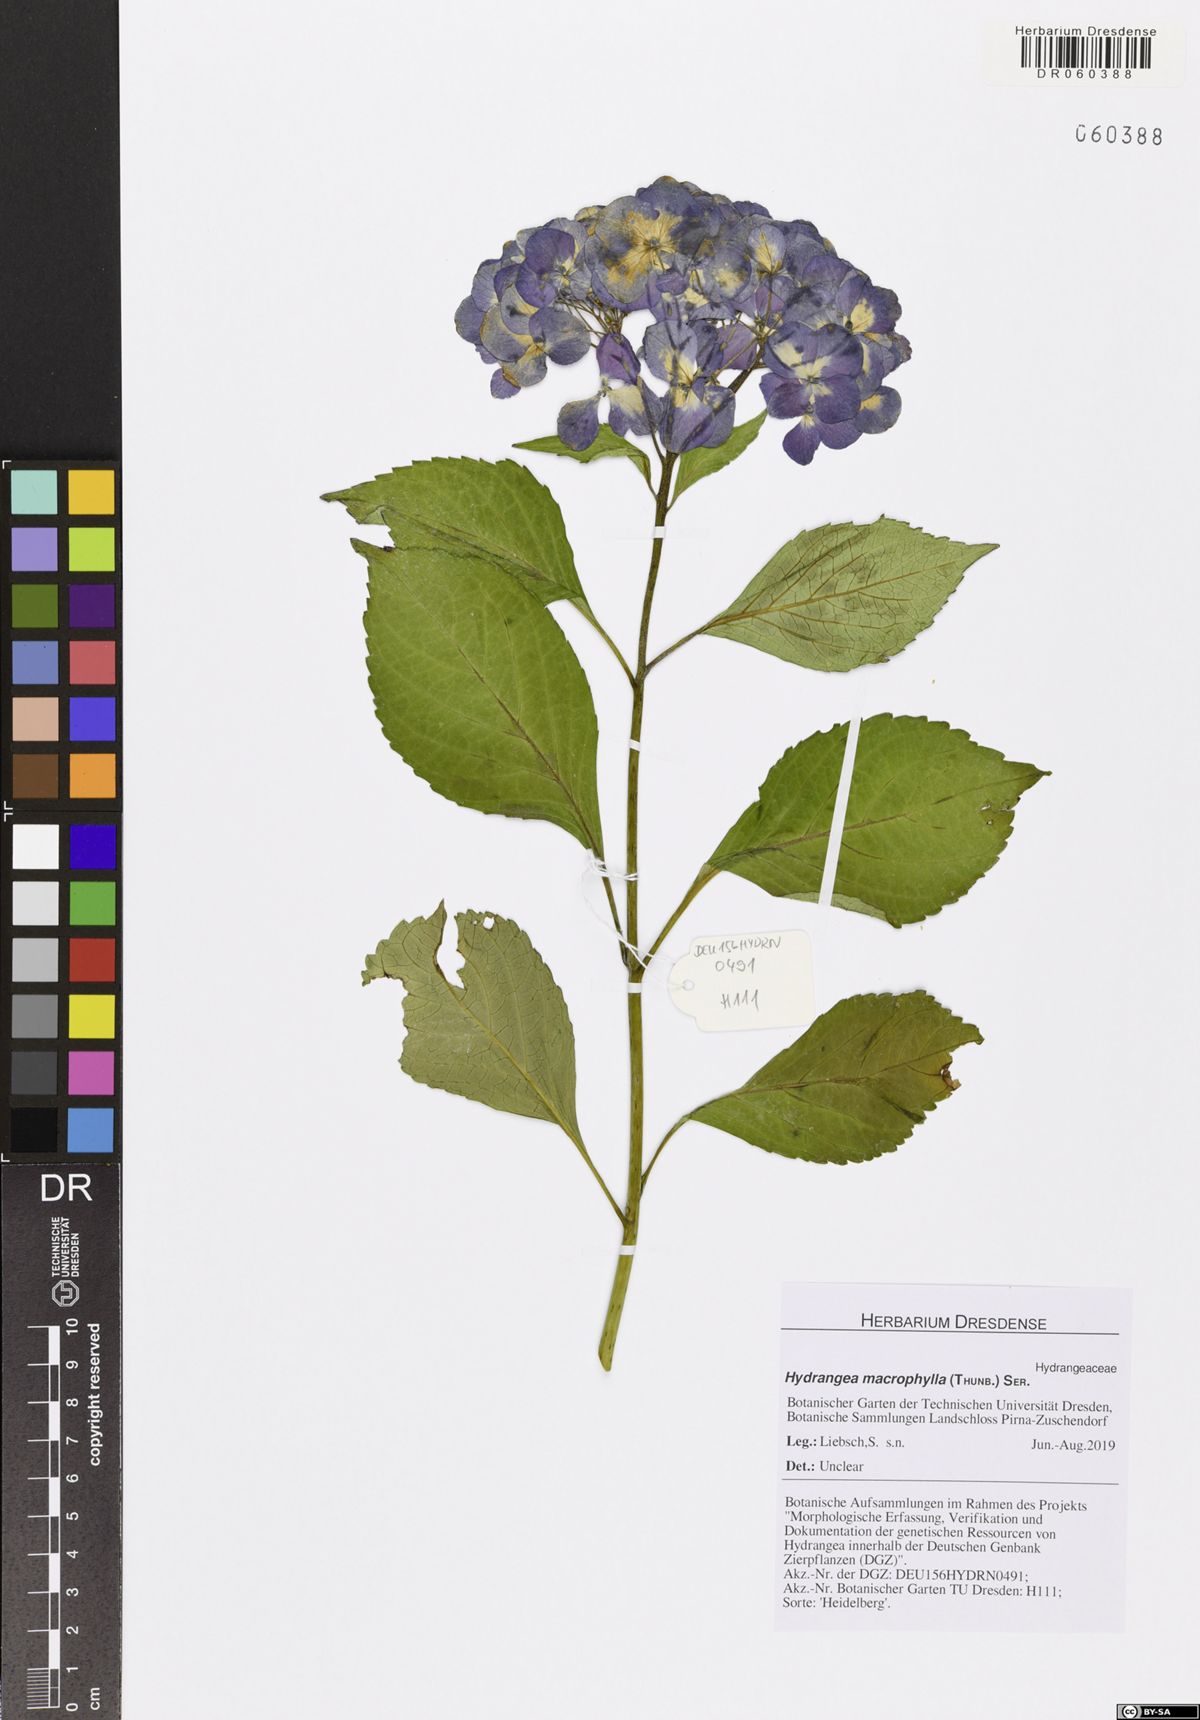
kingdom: Plantae
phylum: Tracheophyta
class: Magnoliopsida
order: Cornales
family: Hydrangeaceae
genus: Hydrangea
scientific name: Hydrangea macrophylla
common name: Hydrangea
